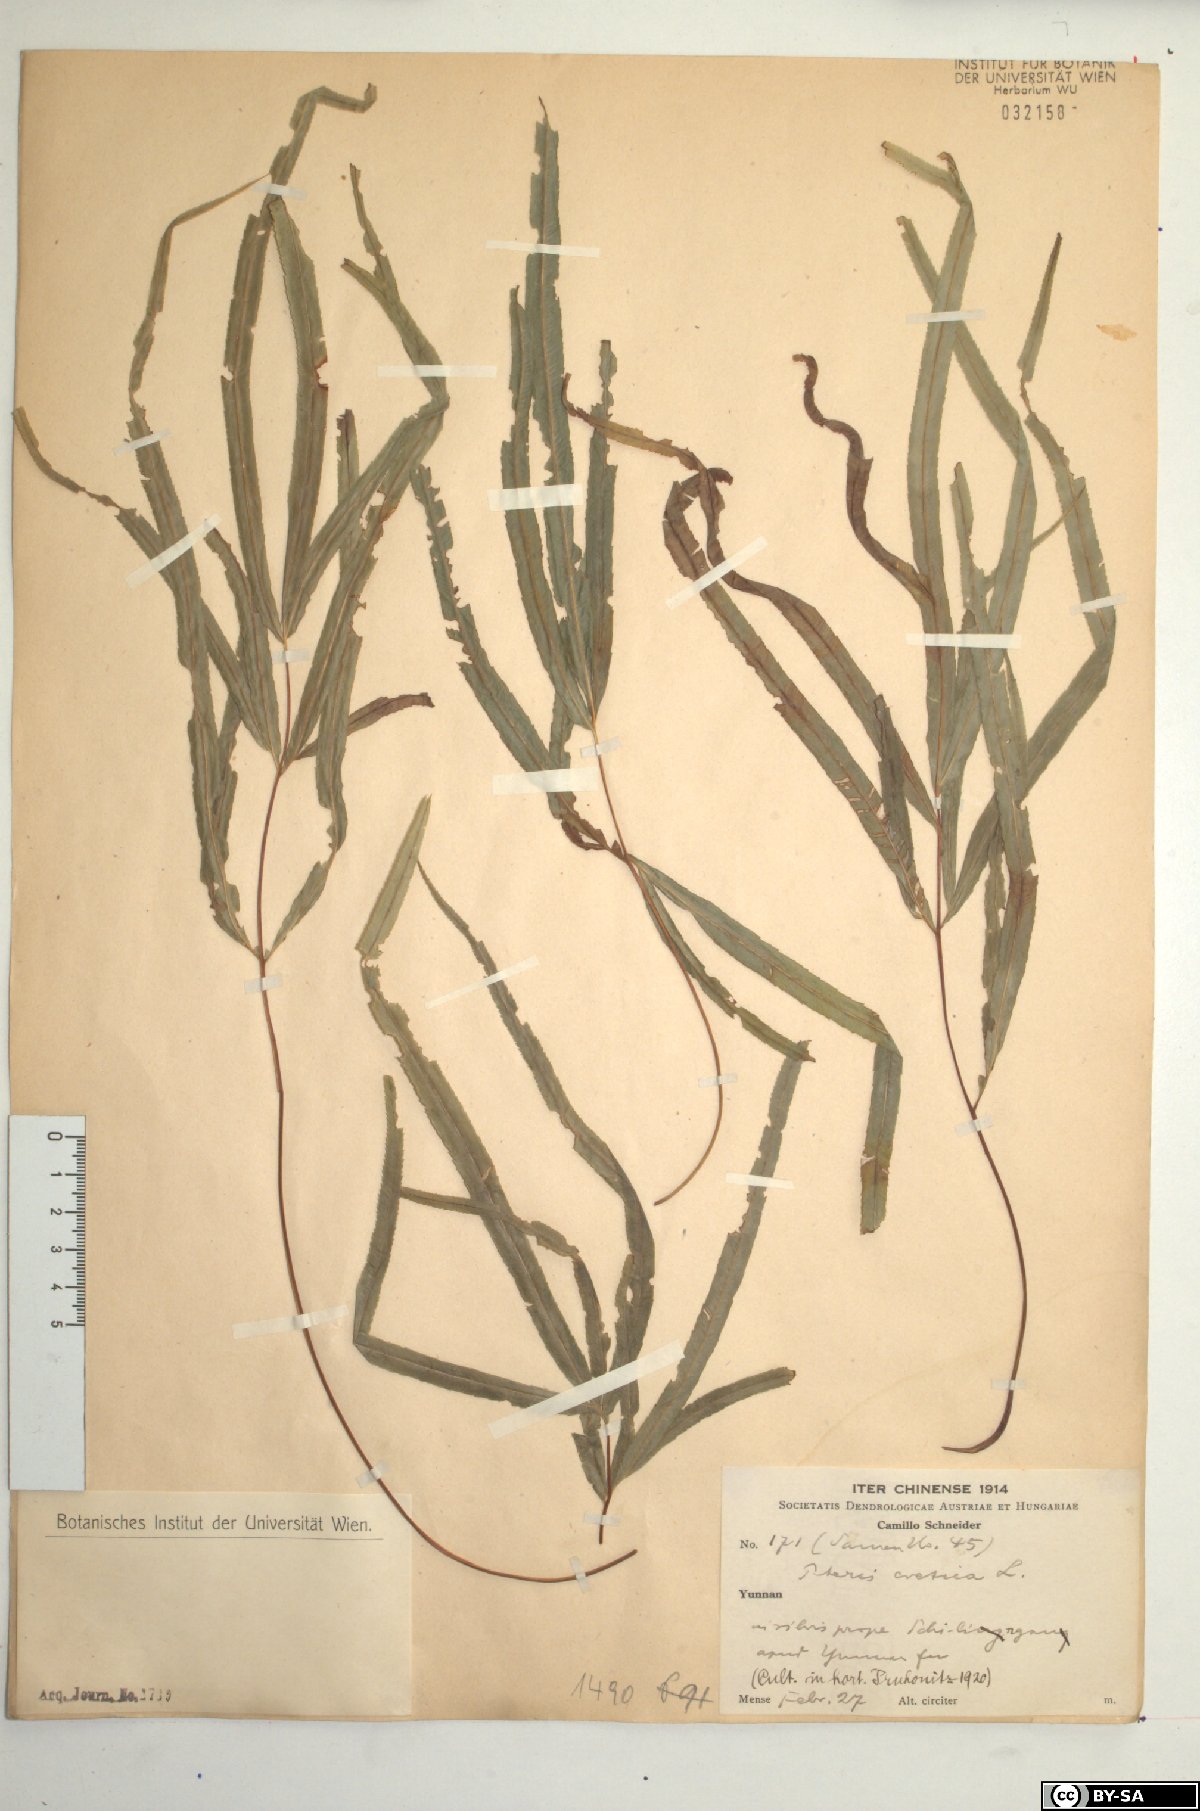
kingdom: Plantae
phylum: Tracheophyta
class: Polypodiopsida
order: Polypodiales
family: Pteridaceae
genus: Pteris
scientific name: Pteris cretica
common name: Ribbon fern
